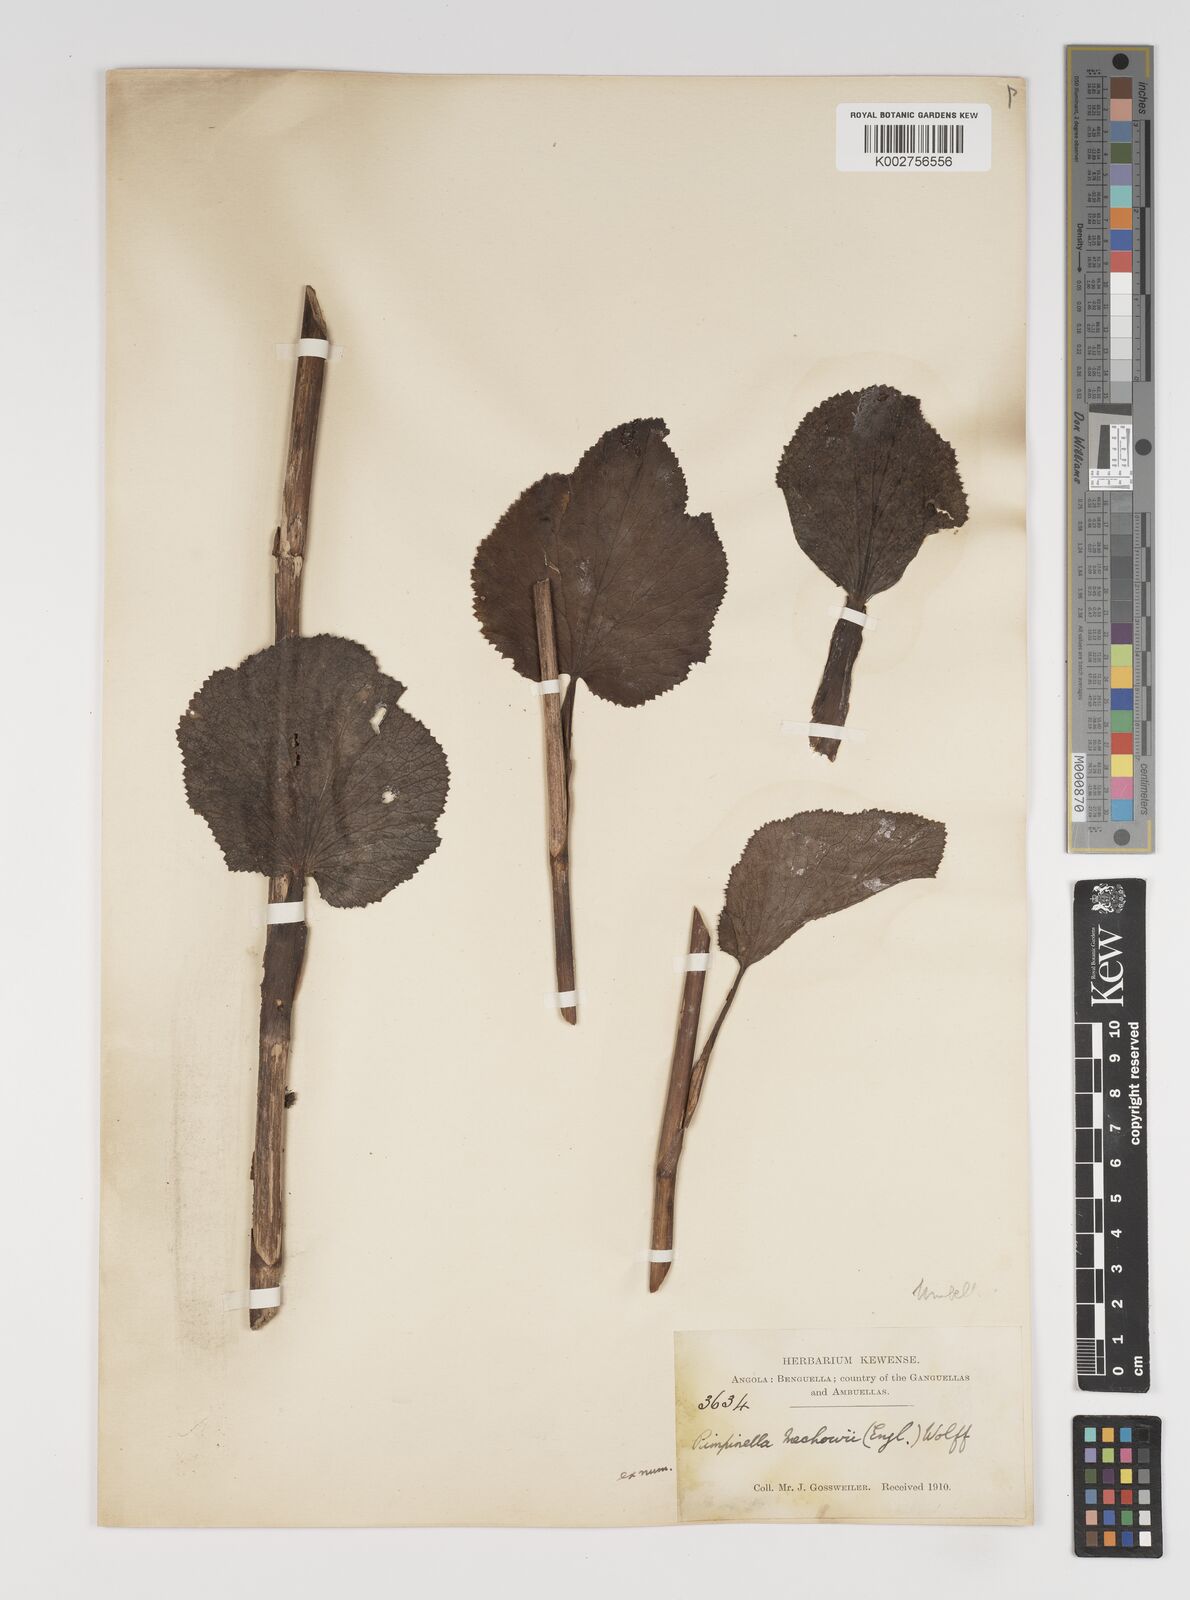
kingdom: Plantae
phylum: Tracheophyta
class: Magnoliopsida
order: Apiales
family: Apiaceae
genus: Pimpinella
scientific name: Pimpinella huillensis
